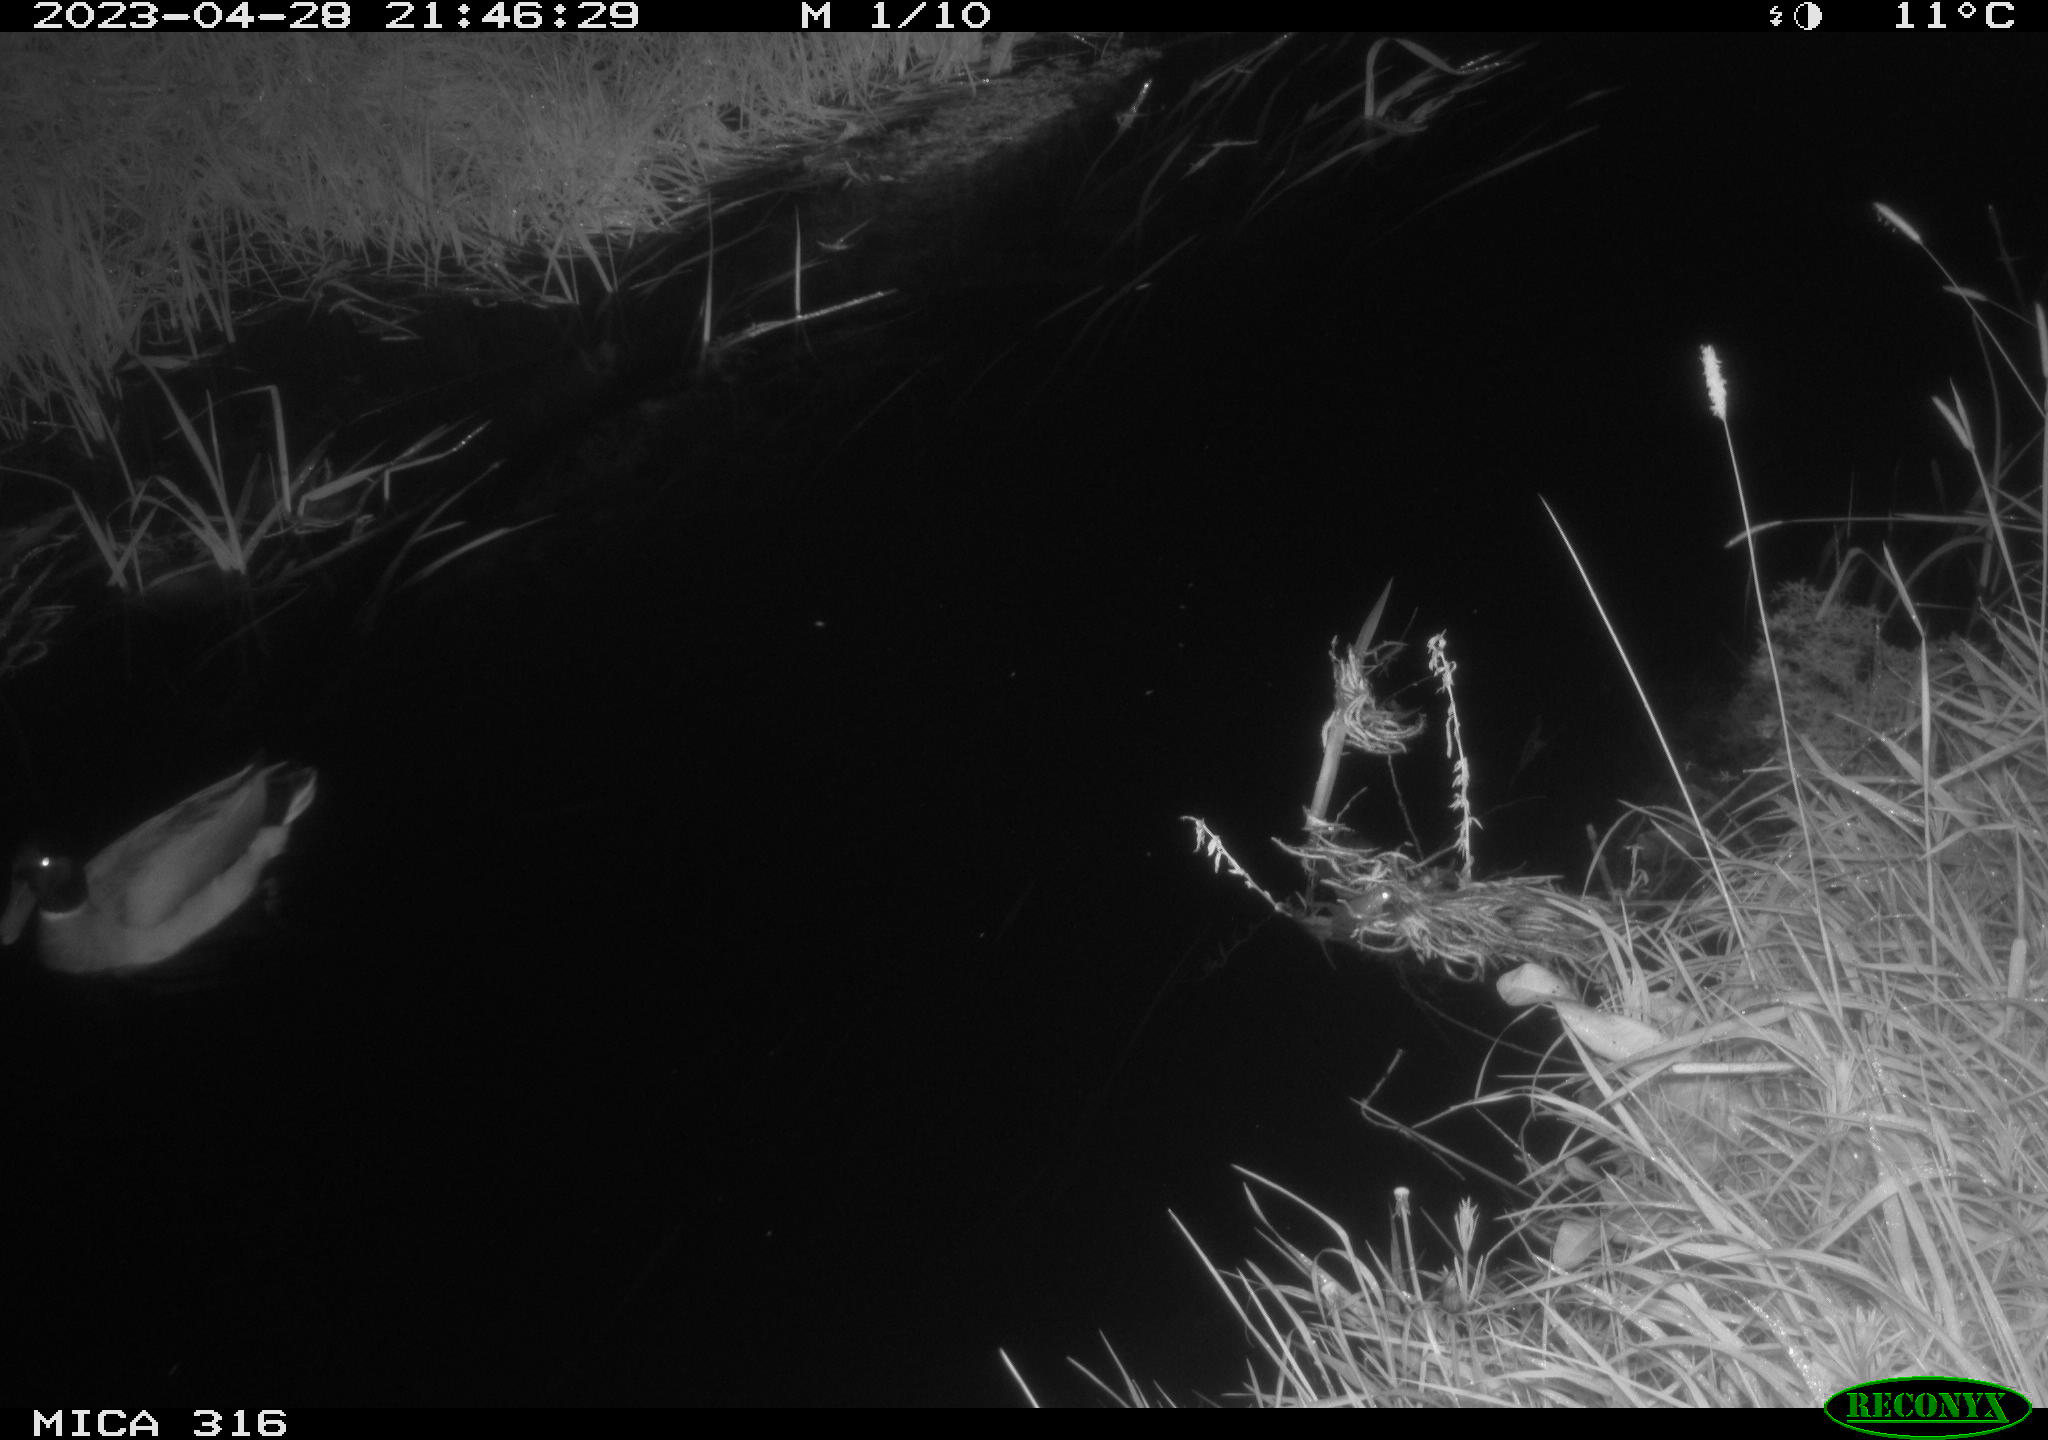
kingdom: Animalia
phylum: Chordata
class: Aves
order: Anseriformes
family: Anatidae
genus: Anas
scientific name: Anas
